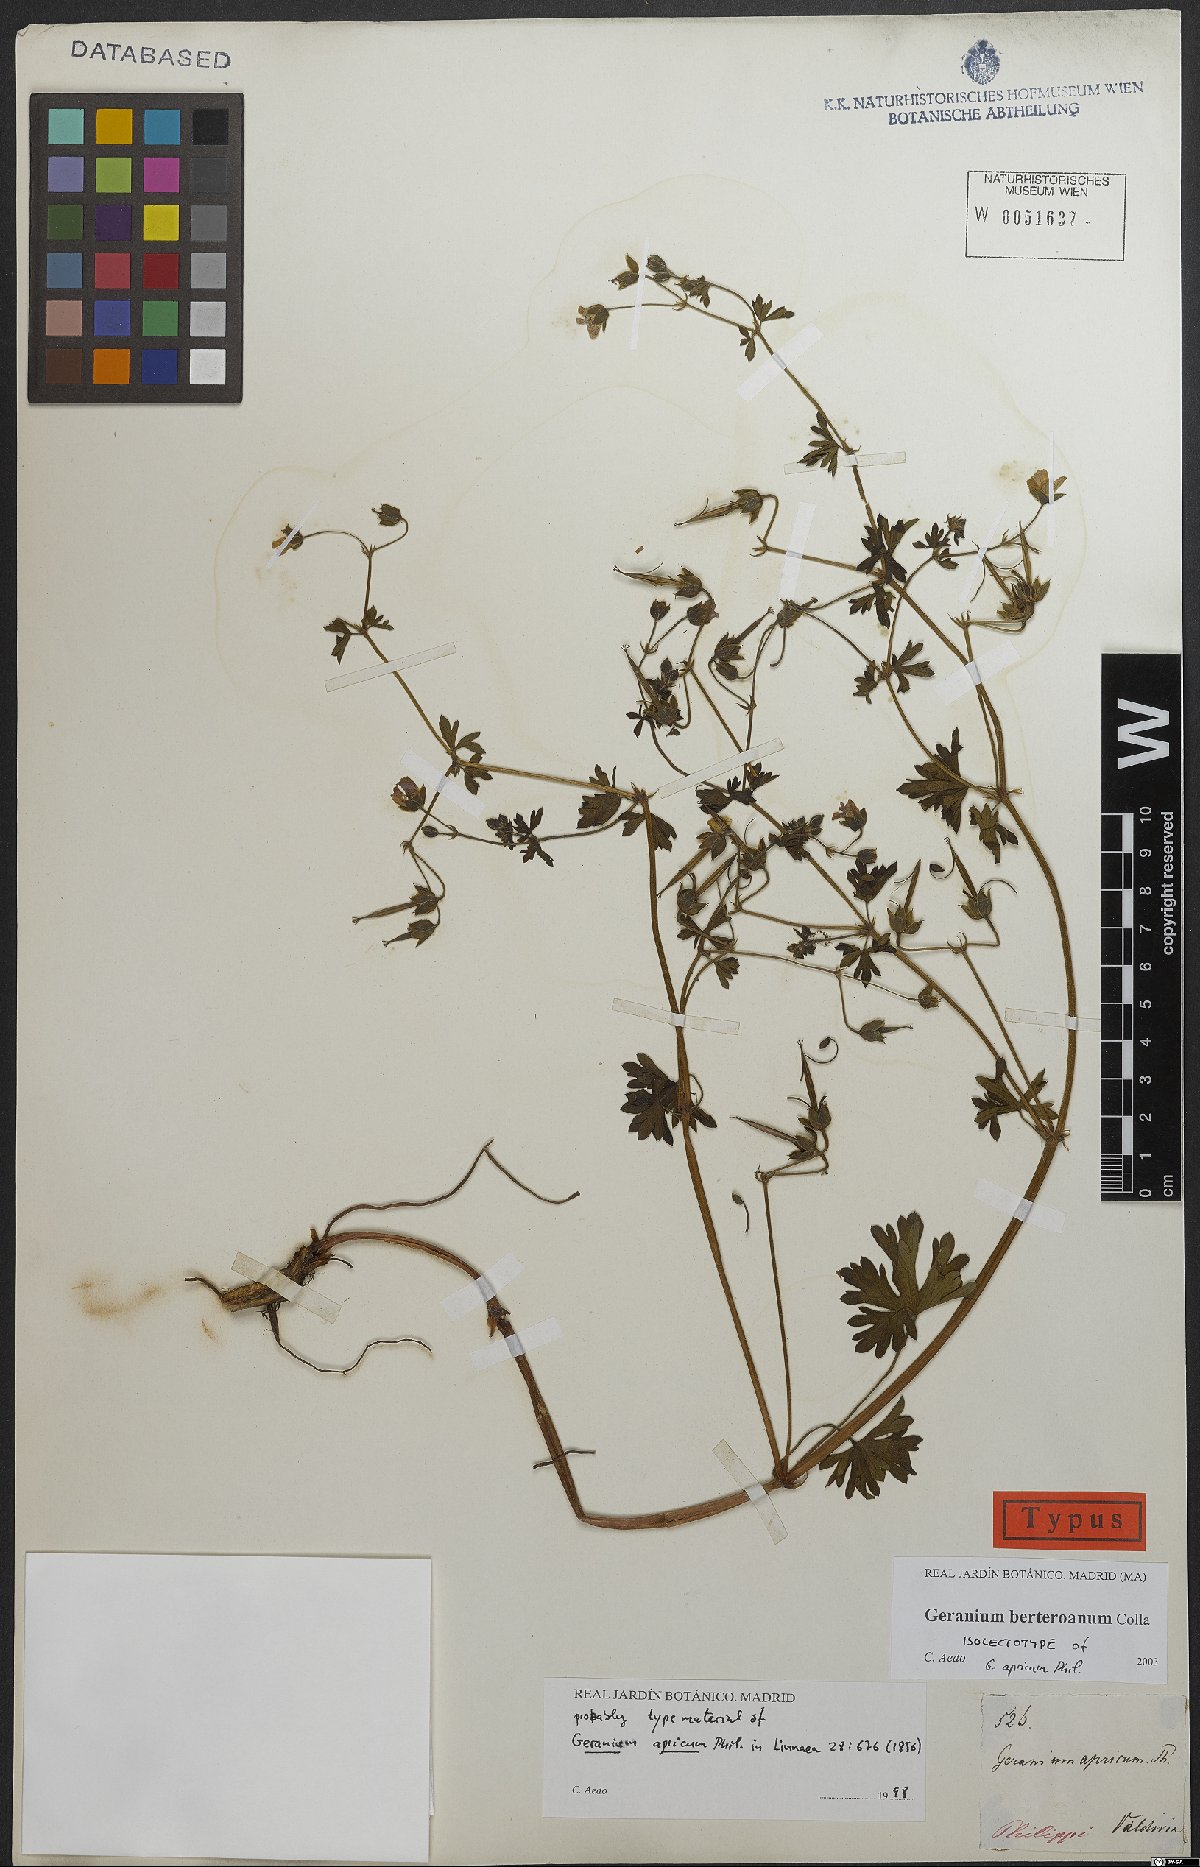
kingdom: Plantae
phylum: Tracheophyta
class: Magnoliopsida
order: Geraniales
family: Geraniaceae
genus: Geranium
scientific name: Geranium berteroanum
